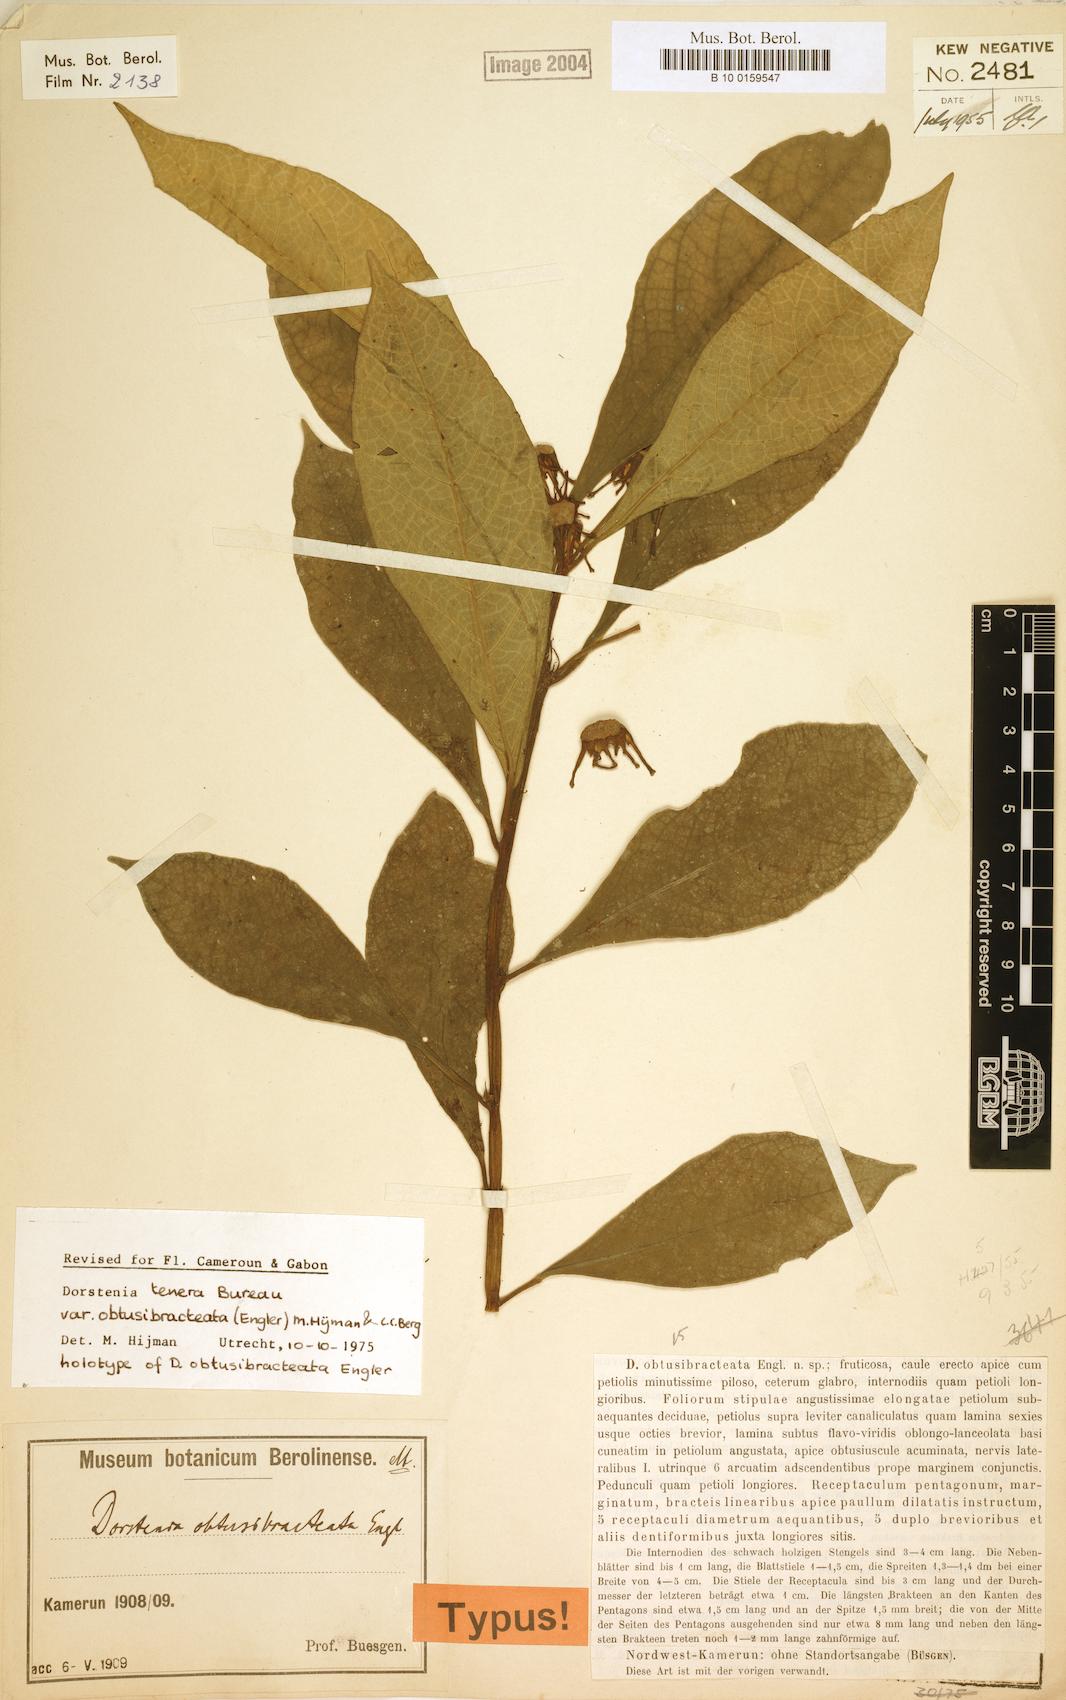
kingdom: Plantae
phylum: Tracheophyta
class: Magnoliopsida
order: Rosales
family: Moraceae
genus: Dorstenia
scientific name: Dorstenia tenera
